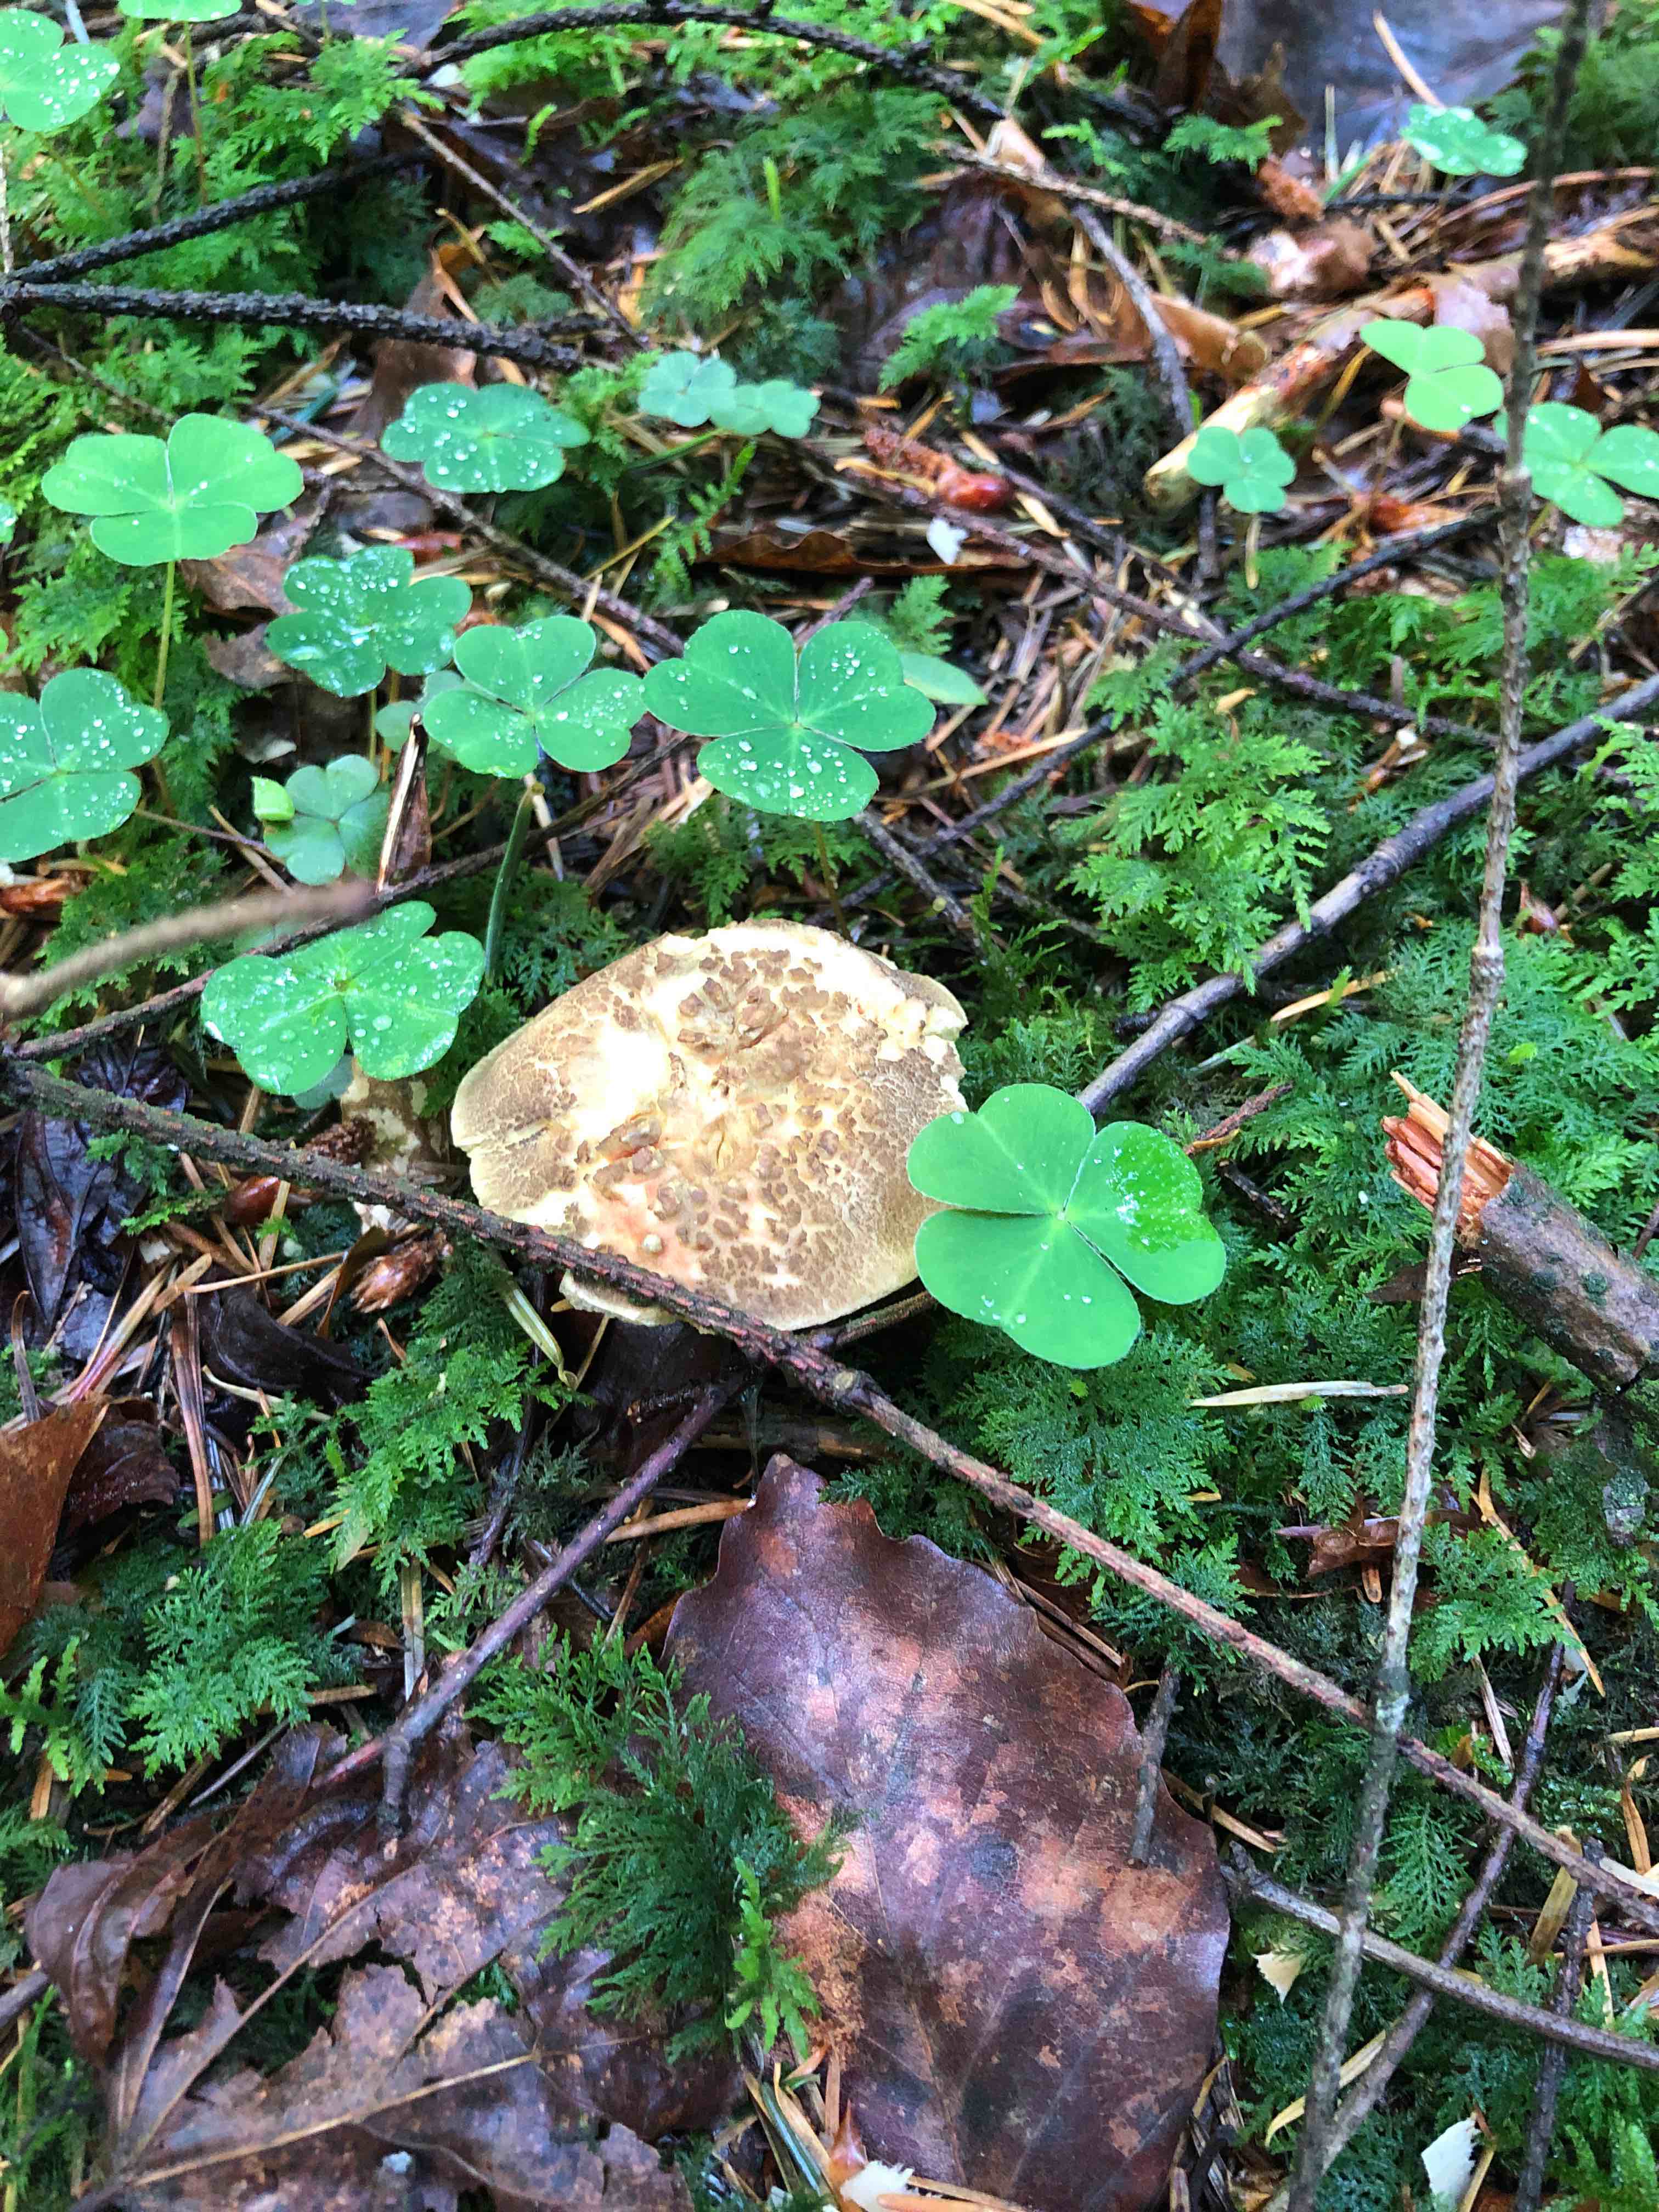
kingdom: Fungi
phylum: Basidiomycota
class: Agaricomycetes
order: Boletales
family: Boletaceae
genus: Xerocomellus
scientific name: Xerocomellus chrysenteron
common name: rødsprukken rørhat
